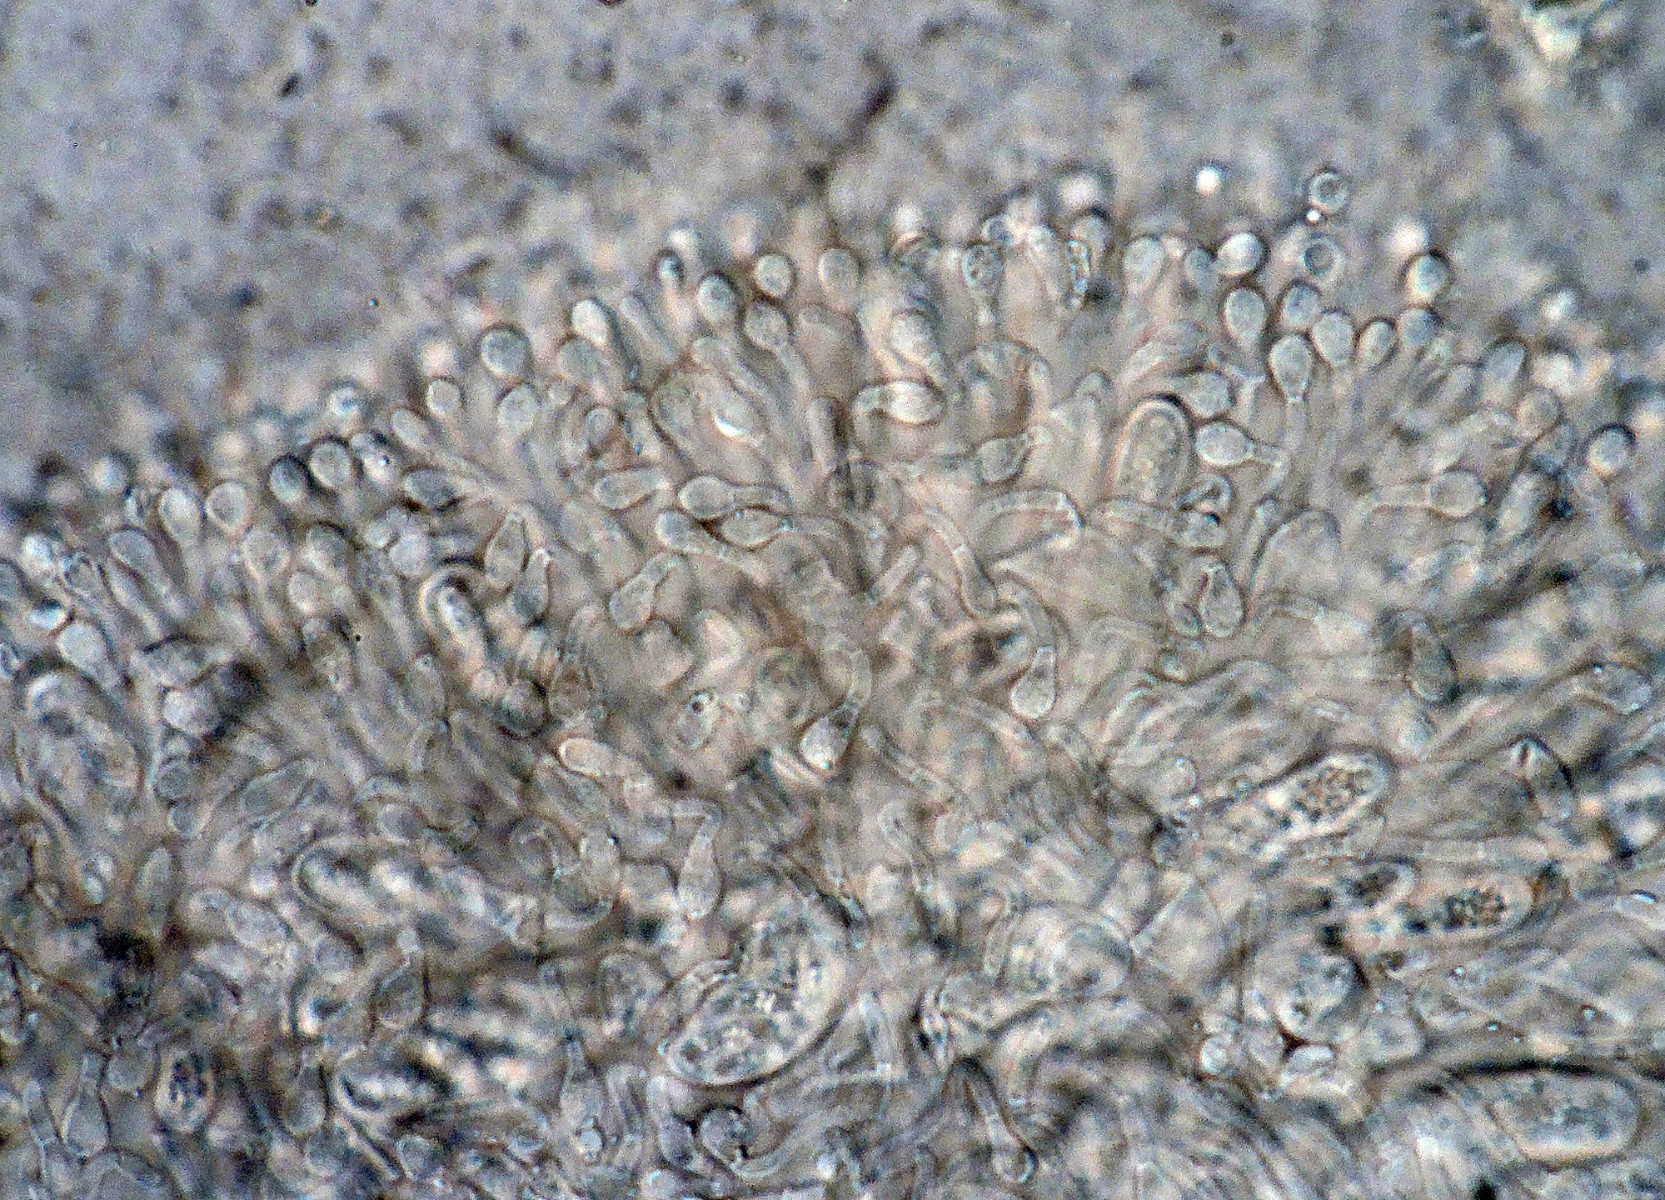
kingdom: Fungi
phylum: Ascomycota
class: Sordariomycetes
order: Hypocreales
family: Cordycipitaceae
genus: Isaria
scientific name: Isaria friesii
